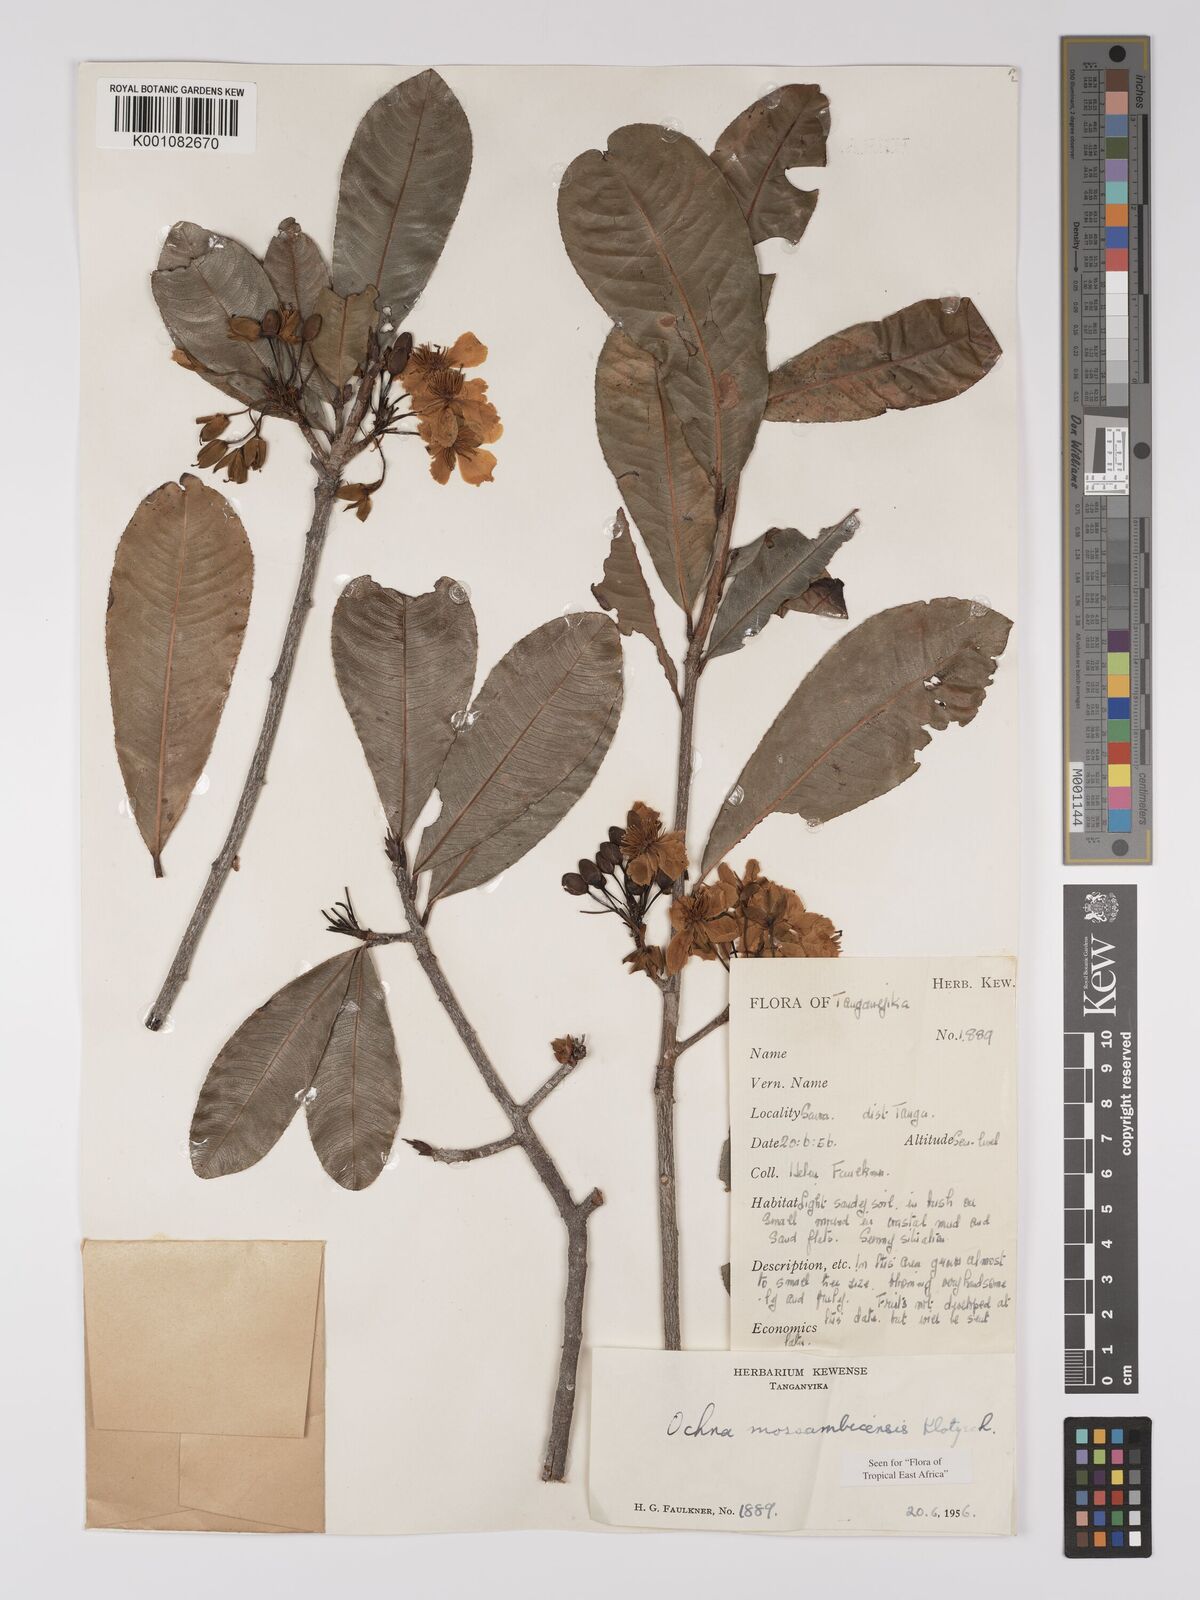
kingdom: Plantae
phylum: Tracheophyta
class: Magnoliopsida
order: Malpighiales
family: Ochnaceae
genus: Ochna
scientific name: Ochna atropurpurea
